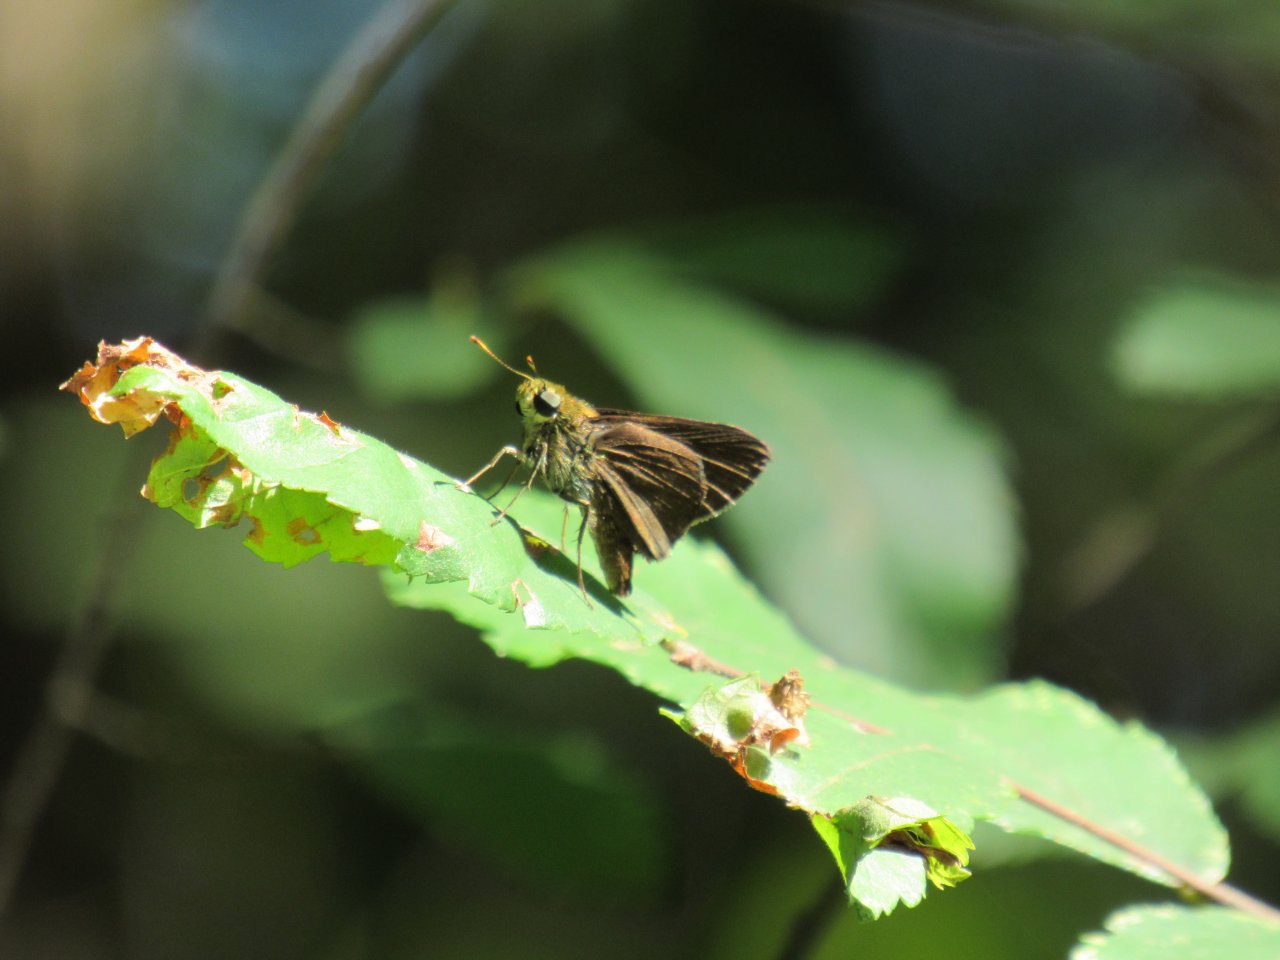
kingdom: Animalia
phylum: Arthropoda
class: Insecta
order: Lepidoptera
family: Hesperiidae
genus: Euphyes
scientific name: Euphyes vestris
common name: Dun Skipper
